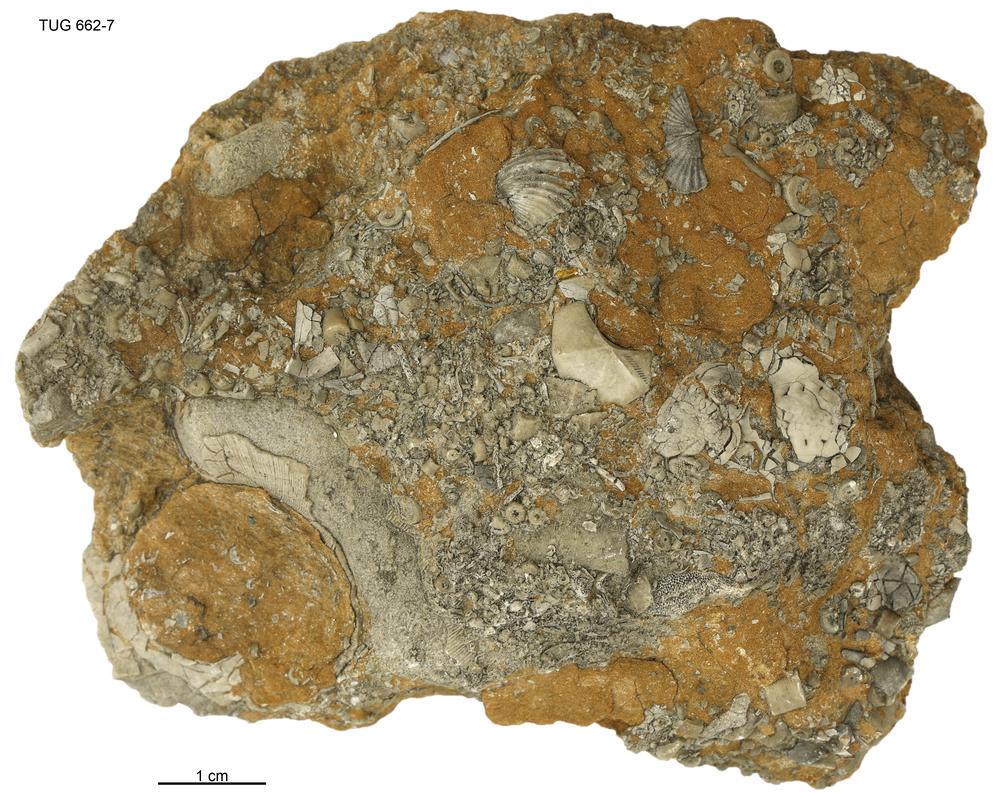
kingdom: Animalia
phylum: Brachiopoda
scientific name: Brachiopoda
